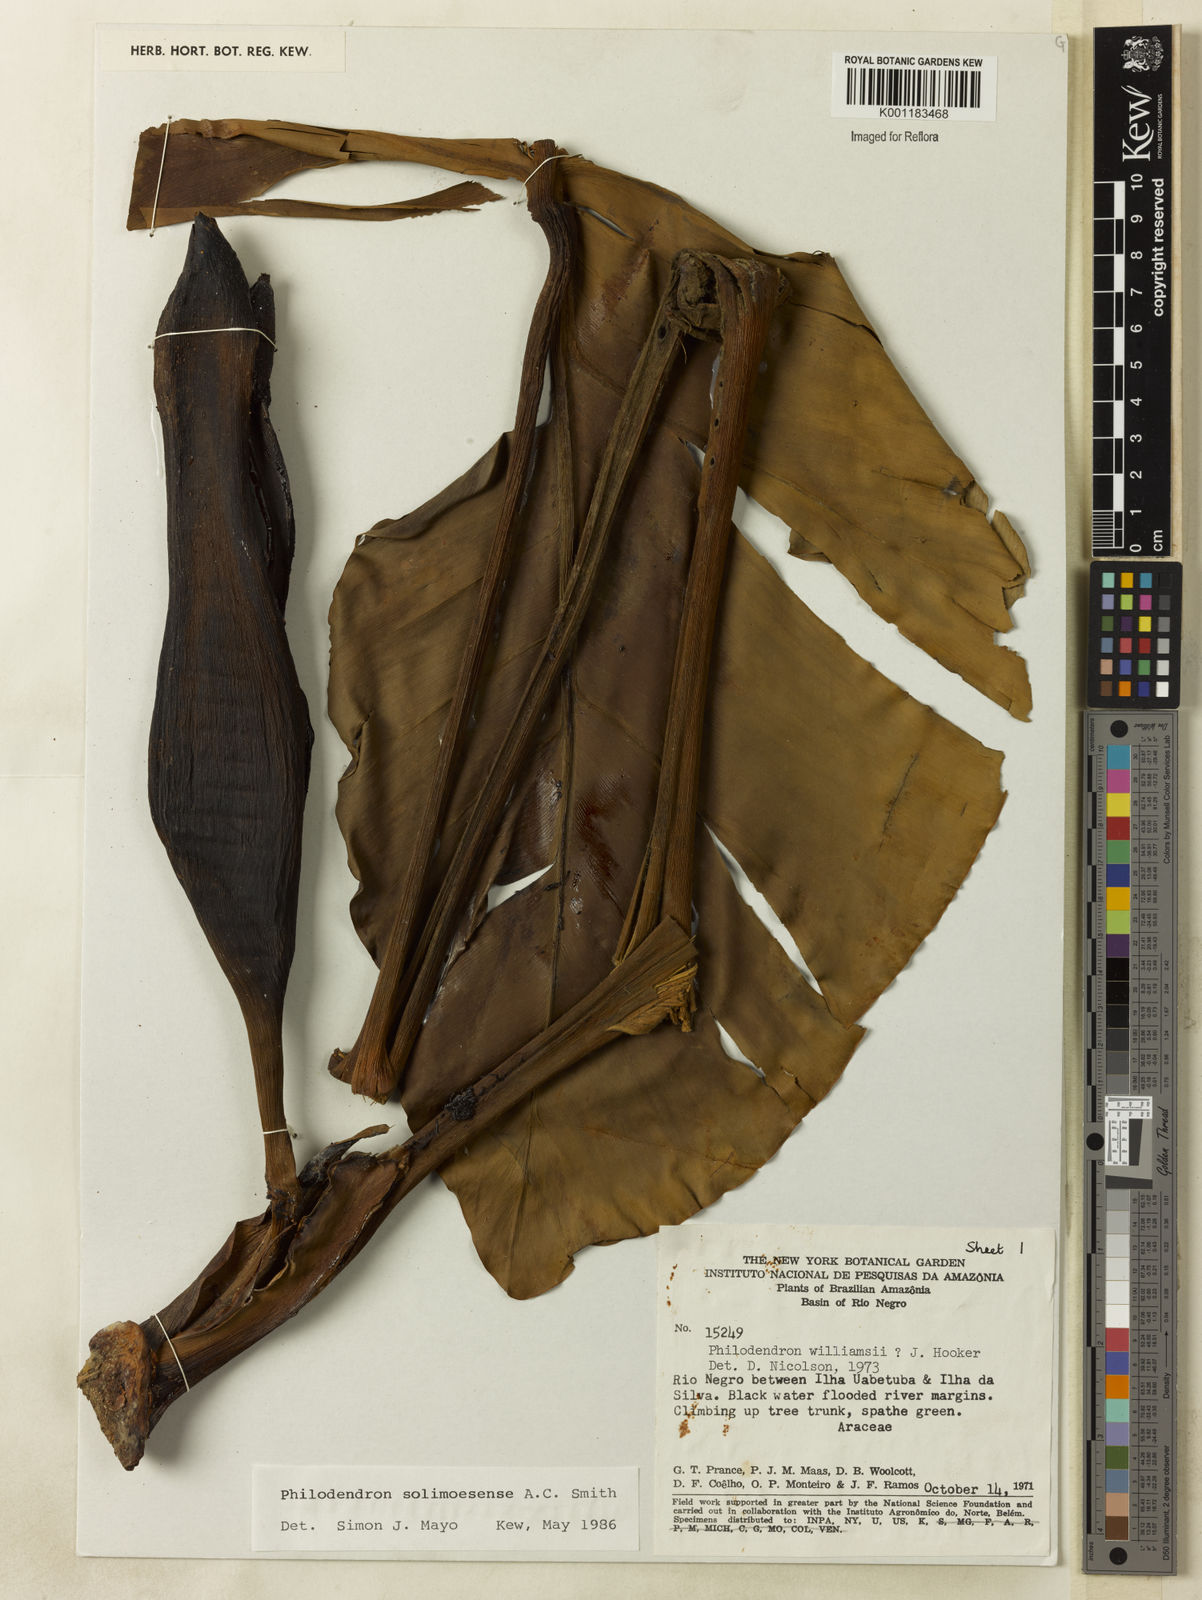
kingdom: Plantae
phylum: Tracheophyta
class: Liliopsida
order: Alismatales
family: Araceae
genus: Thaumatophyllum
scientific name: Thaumatophyllum solimoesense
